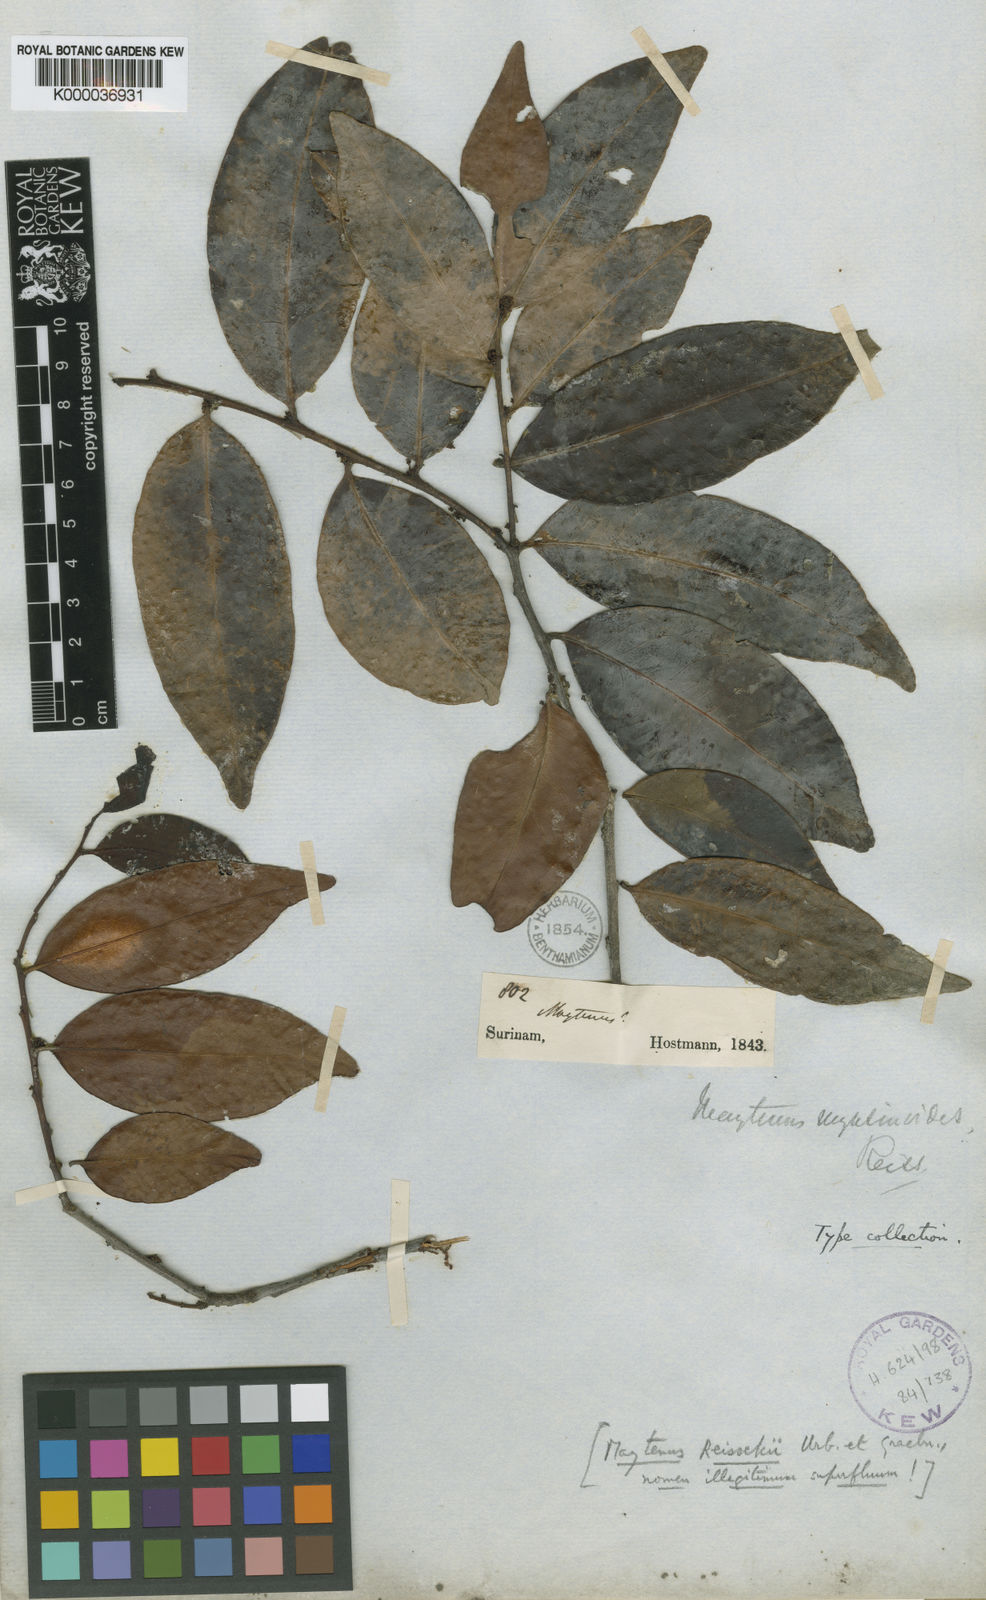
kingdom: Plantae
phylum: Tracheophyta
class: Magnoliopsida
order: Celastrales
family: Celastraceae
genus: Monteverdia
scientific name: Monteverdia myrsinoides
